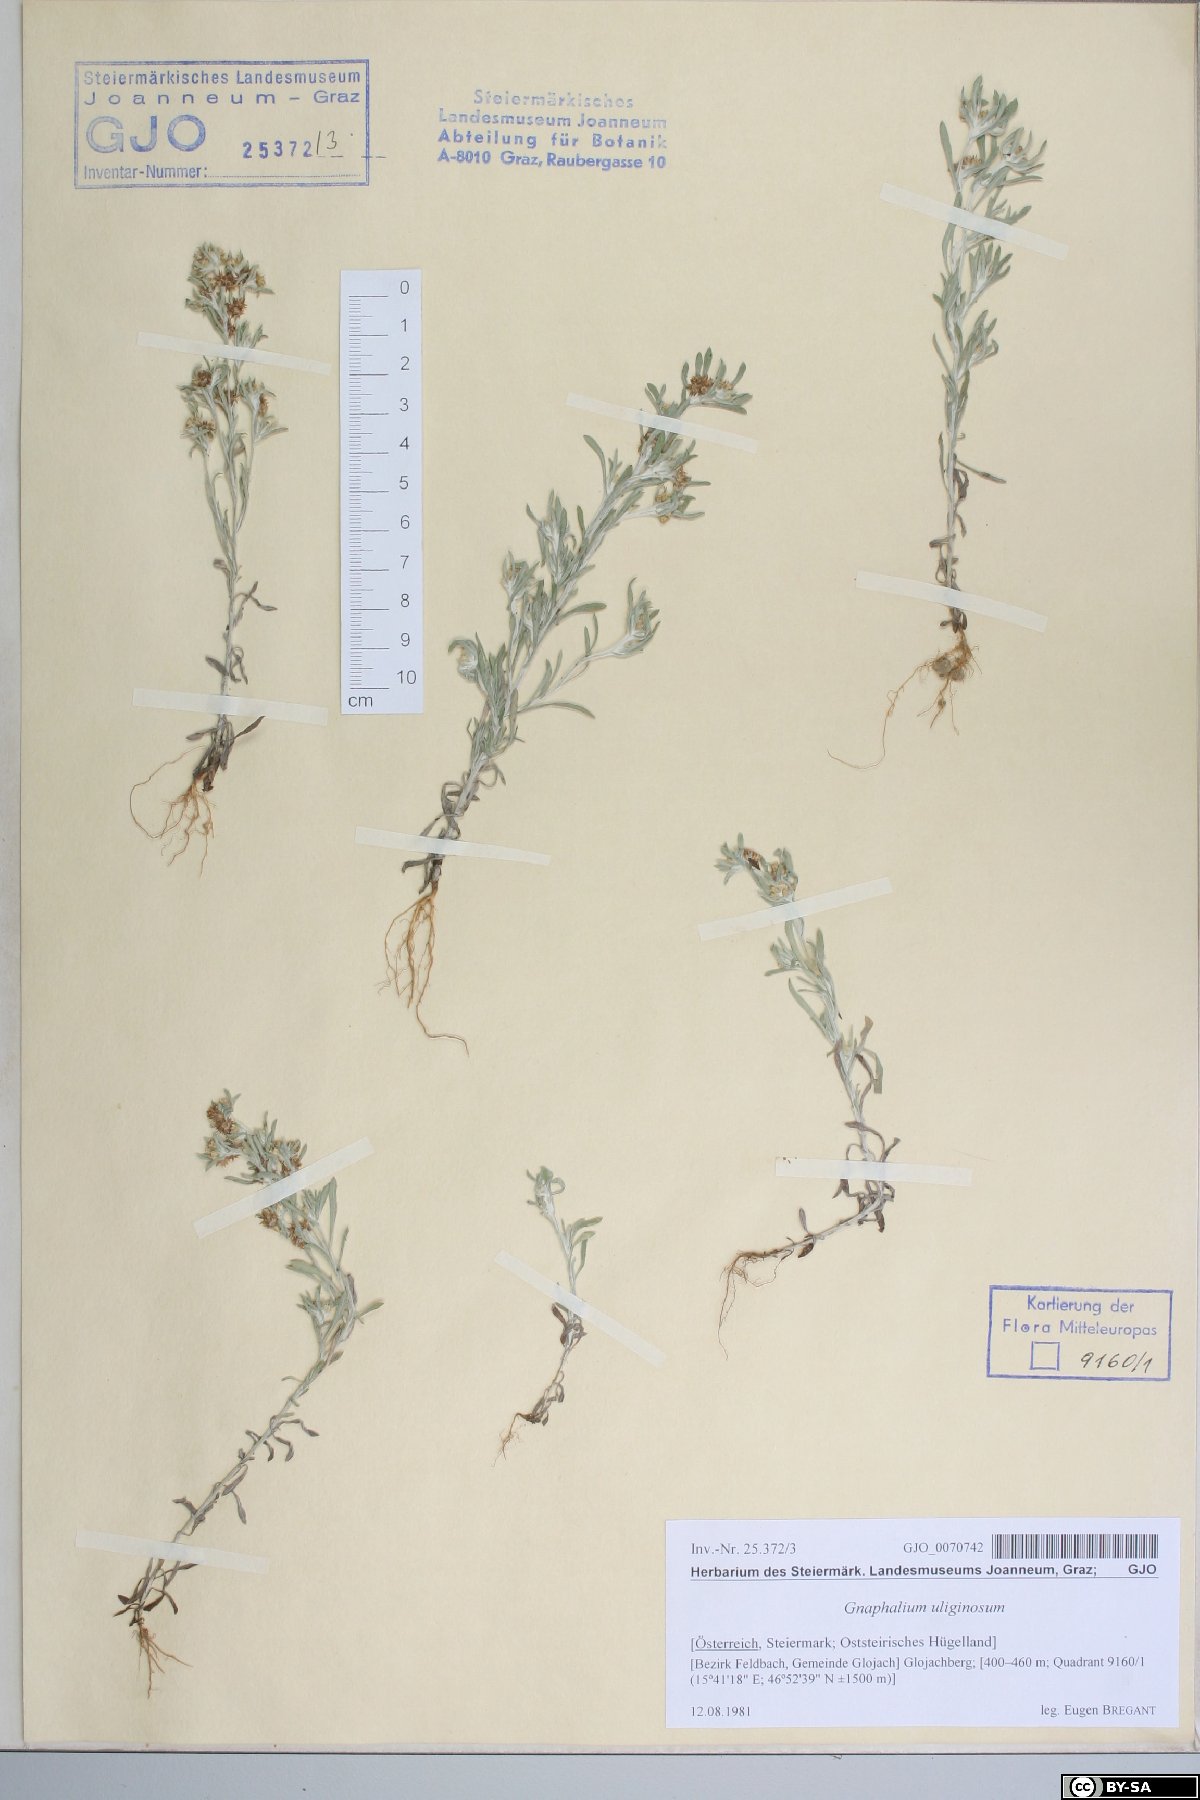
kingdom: Plantae
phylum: Tracheophyta
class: Magnoliopsida
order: Asterales
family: Asteraceae
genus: Gnaphalium
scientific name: Gnaphalium uliginosum
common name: Marsh cudweed
